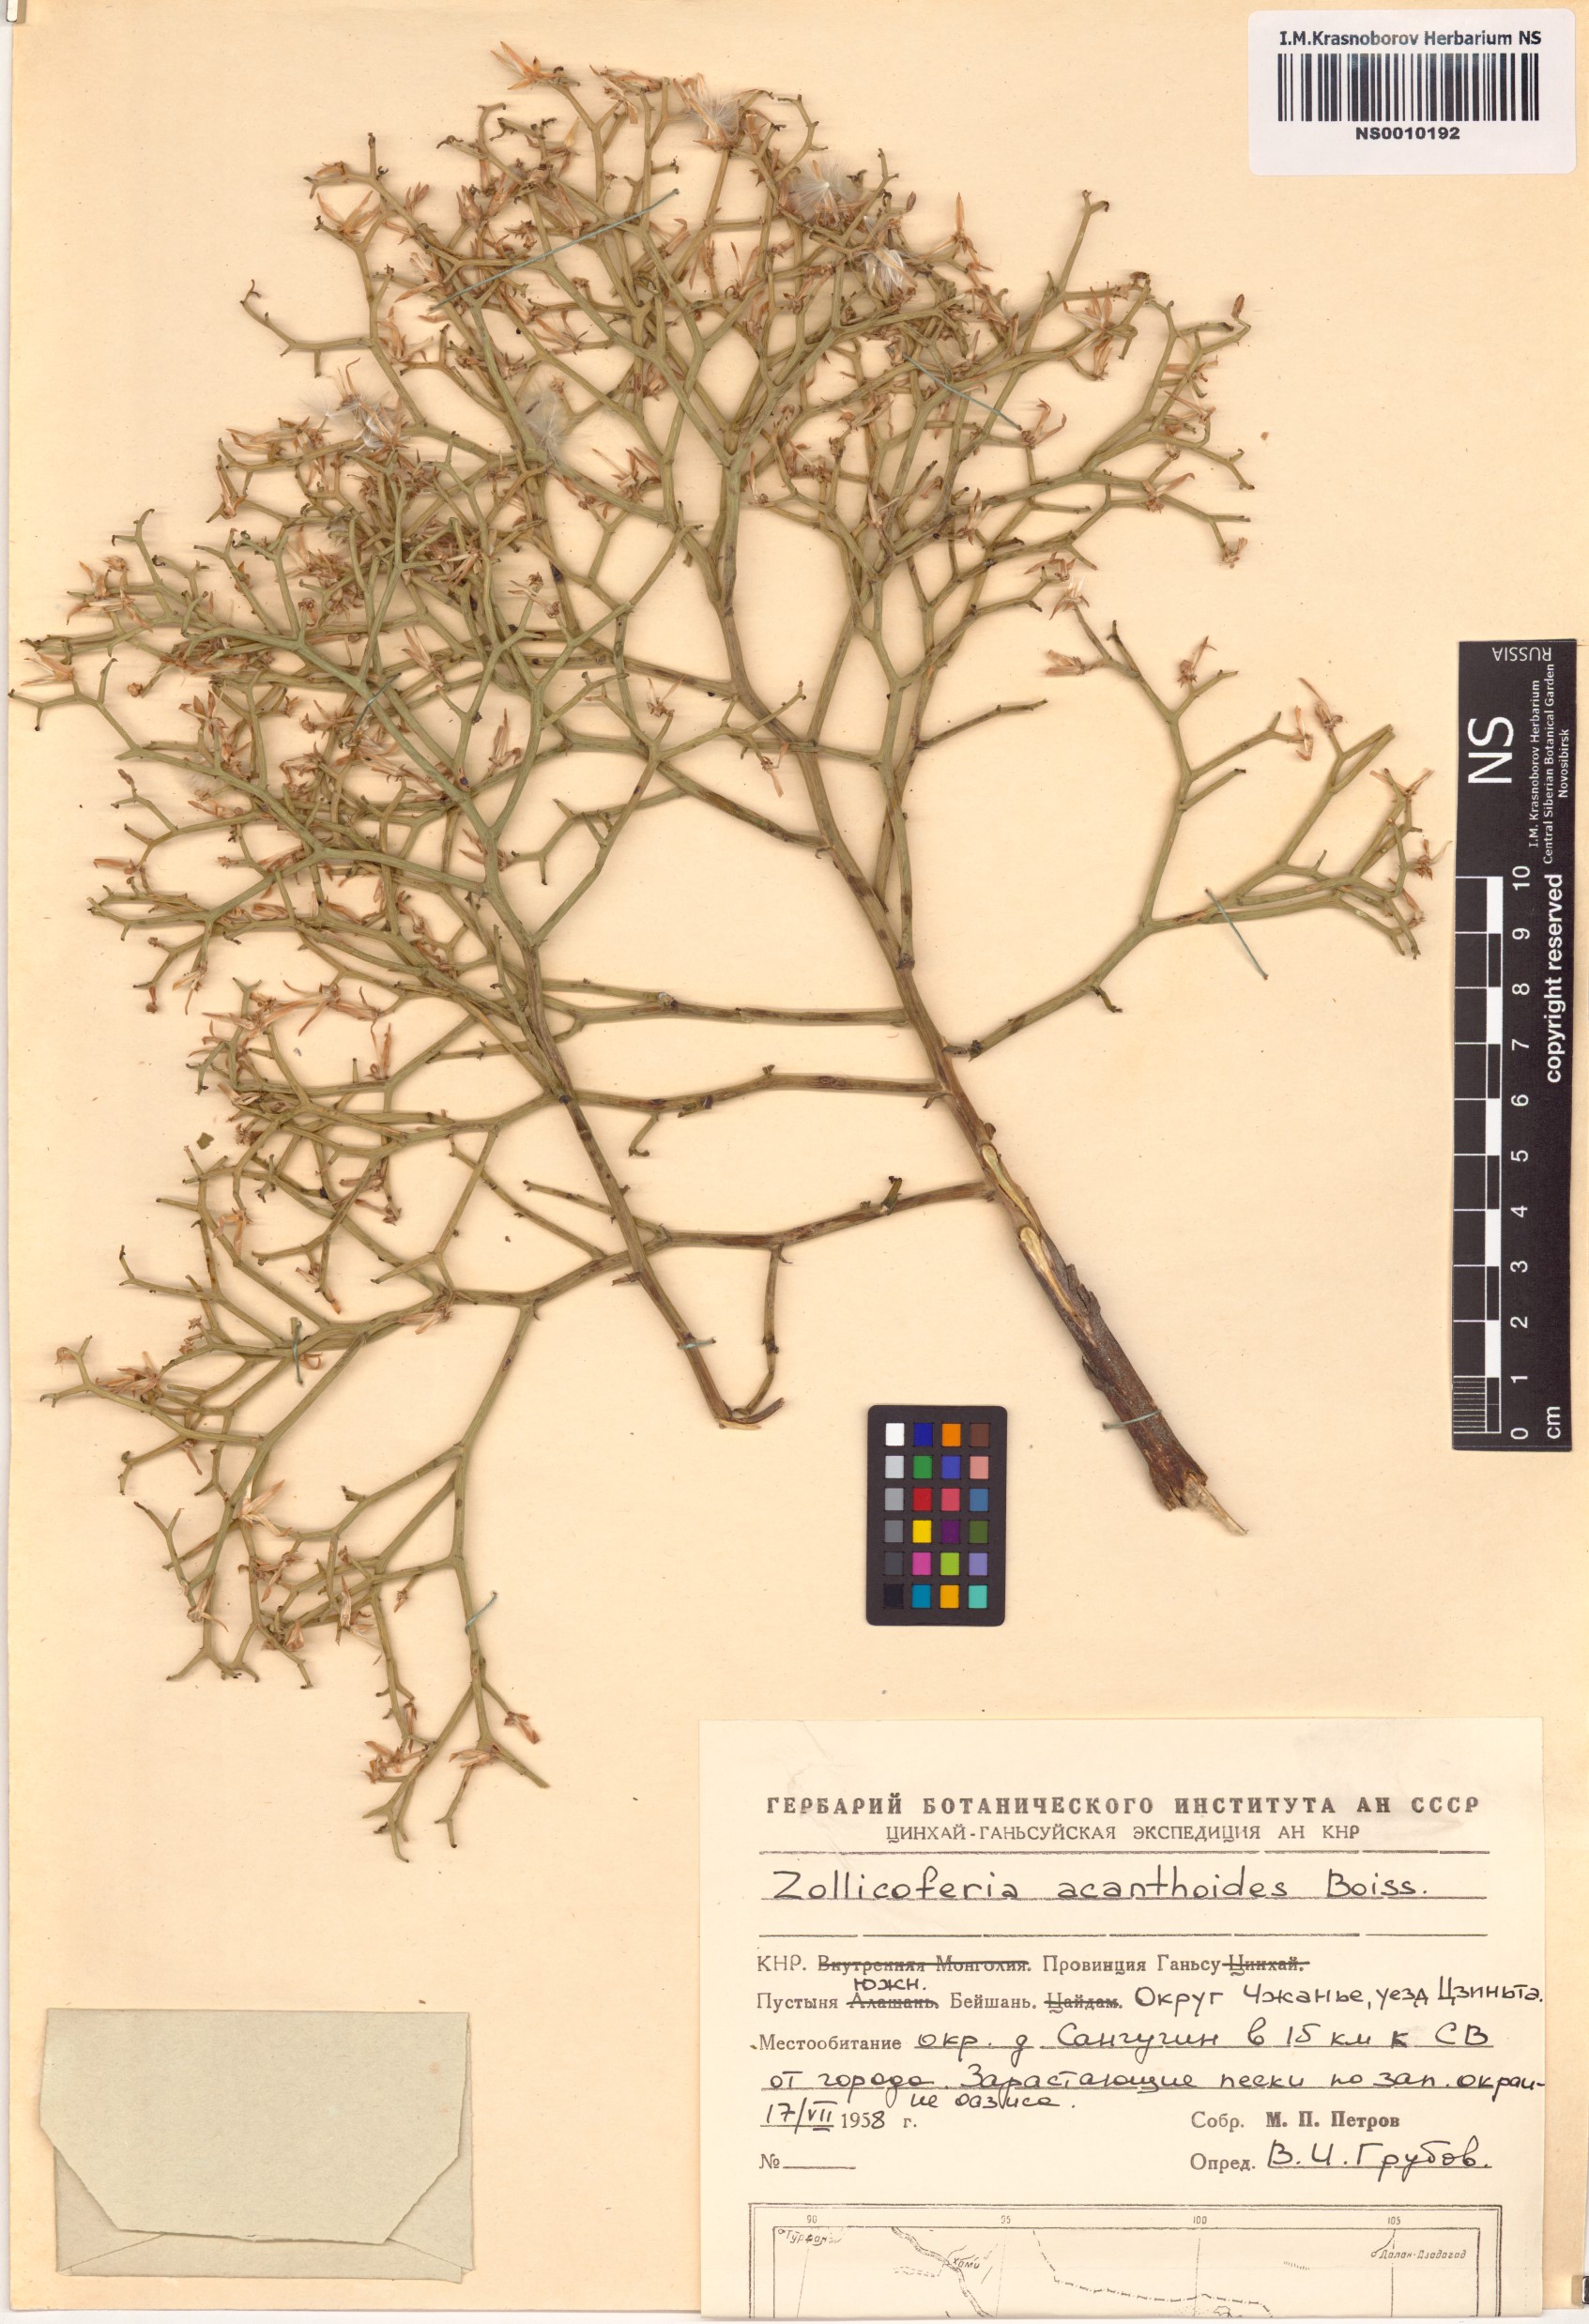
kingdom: Plantae
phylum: Tracheophyta
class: Magnoliopsida
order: Asterales
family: Asteraceae
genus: Launaea
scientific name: Launaea acanthodes
